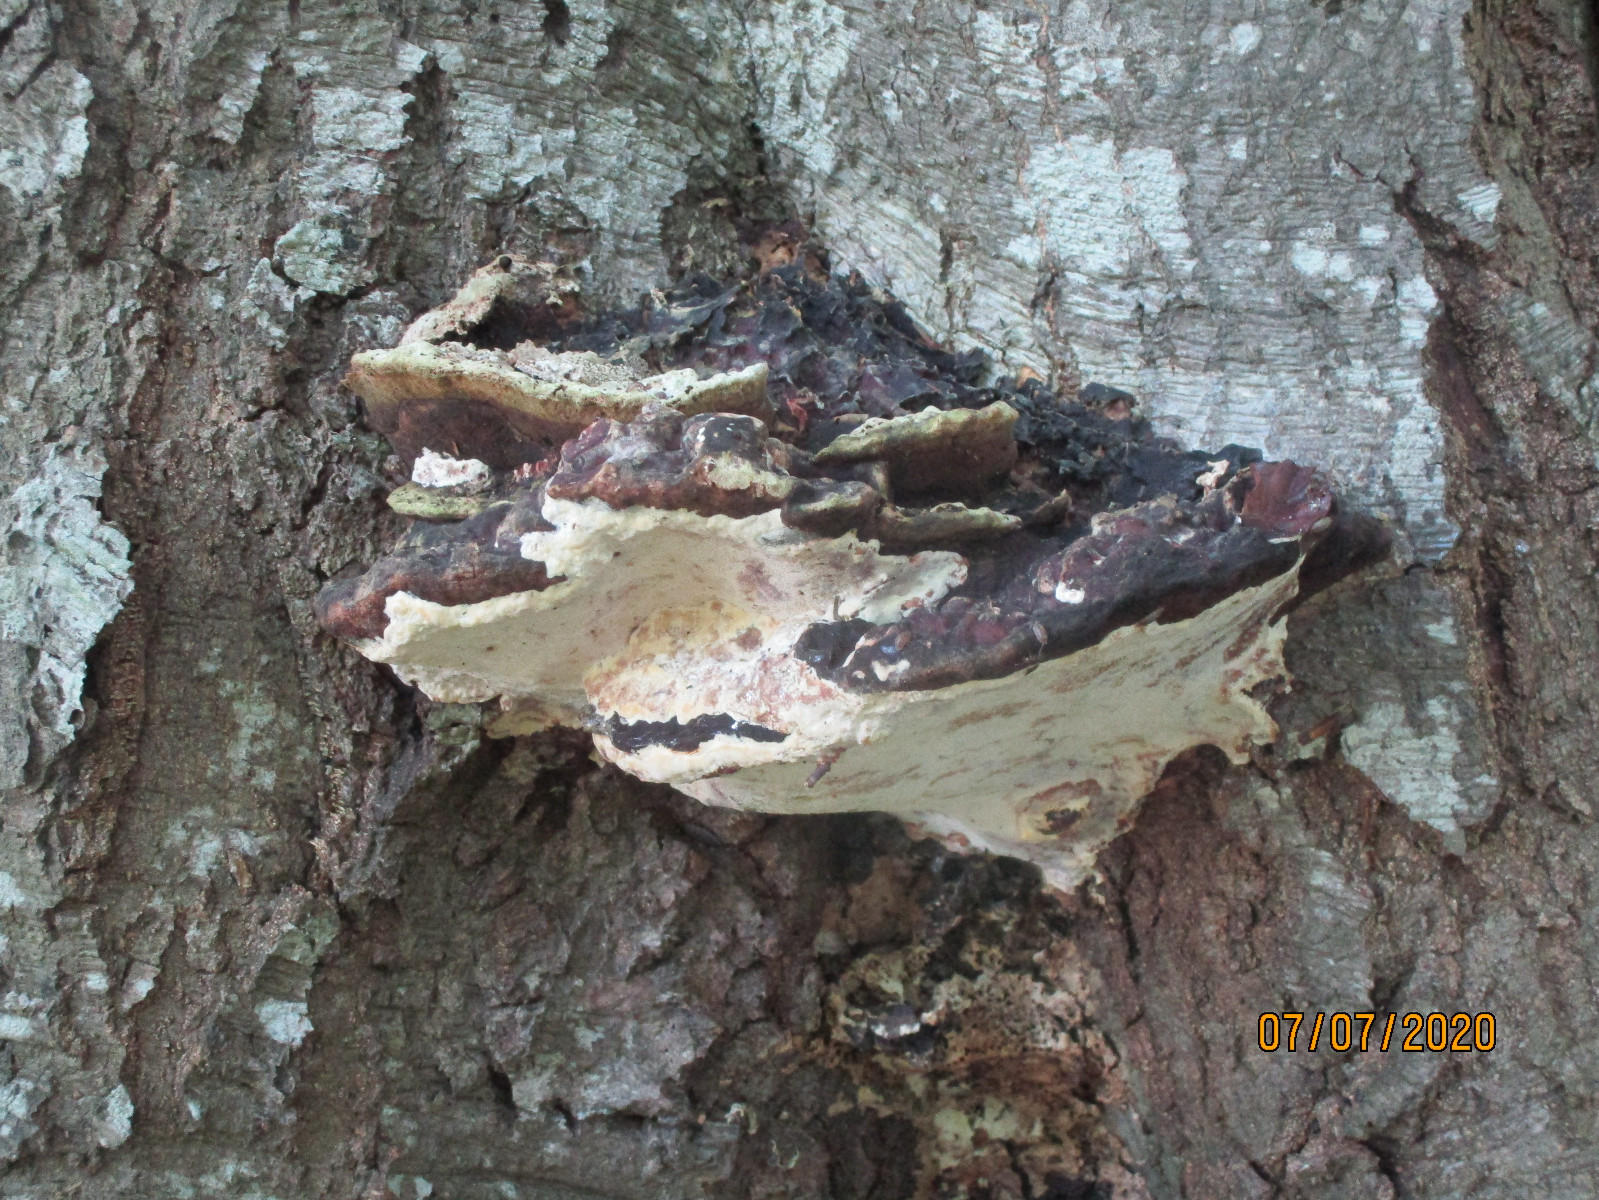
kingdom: Fungi
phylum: Basidiomycota
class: Agaricomycetes
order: Polyporales
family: Polyporaceae
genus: Vanderbylia
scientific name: Vanderbylia fraxinea
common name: stor kanelporesvamp
